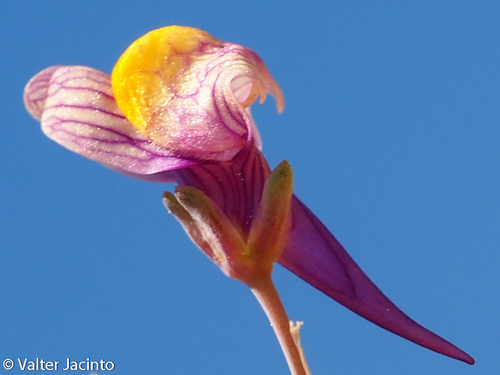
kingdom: Plantae
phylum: Tracheophyta
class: Magnoliopsida
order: Lamiales
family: Plantaginaceae
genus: Linaria
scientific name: Linaria pedunculata
